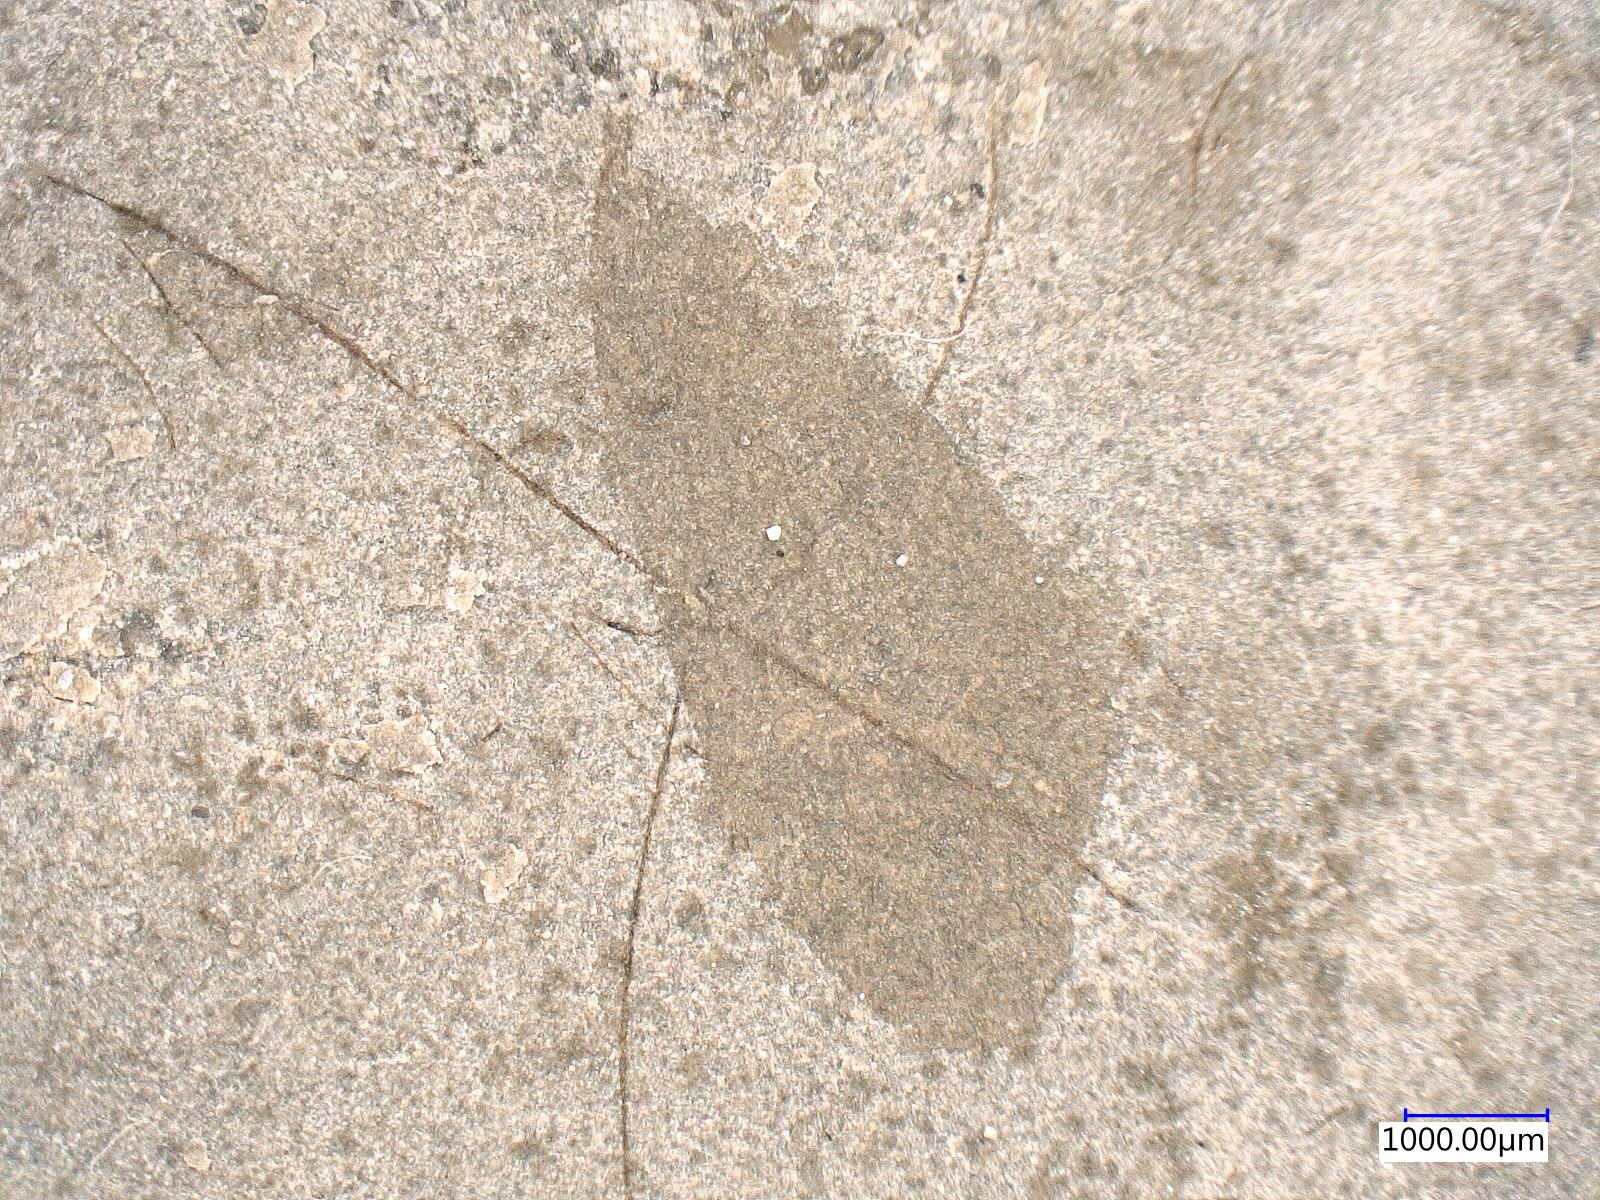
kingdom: Animalia
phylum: Arthropoda
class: Insecta
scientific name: Insecta
